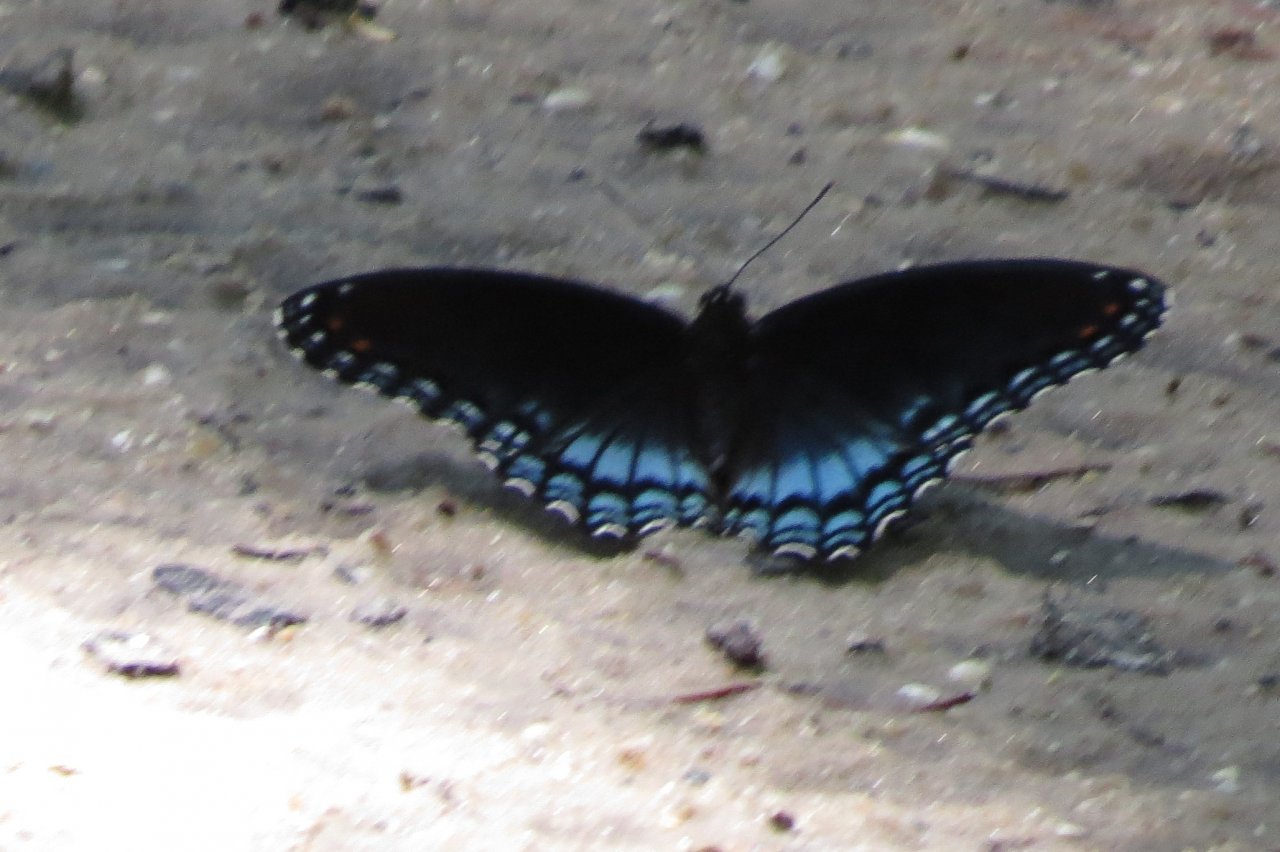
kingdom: Animalia
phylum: Arthropoda
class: Insecta
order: Lepidoptera
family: Nymphalidae
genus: Limenitis
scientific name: Limenitis astyanax
